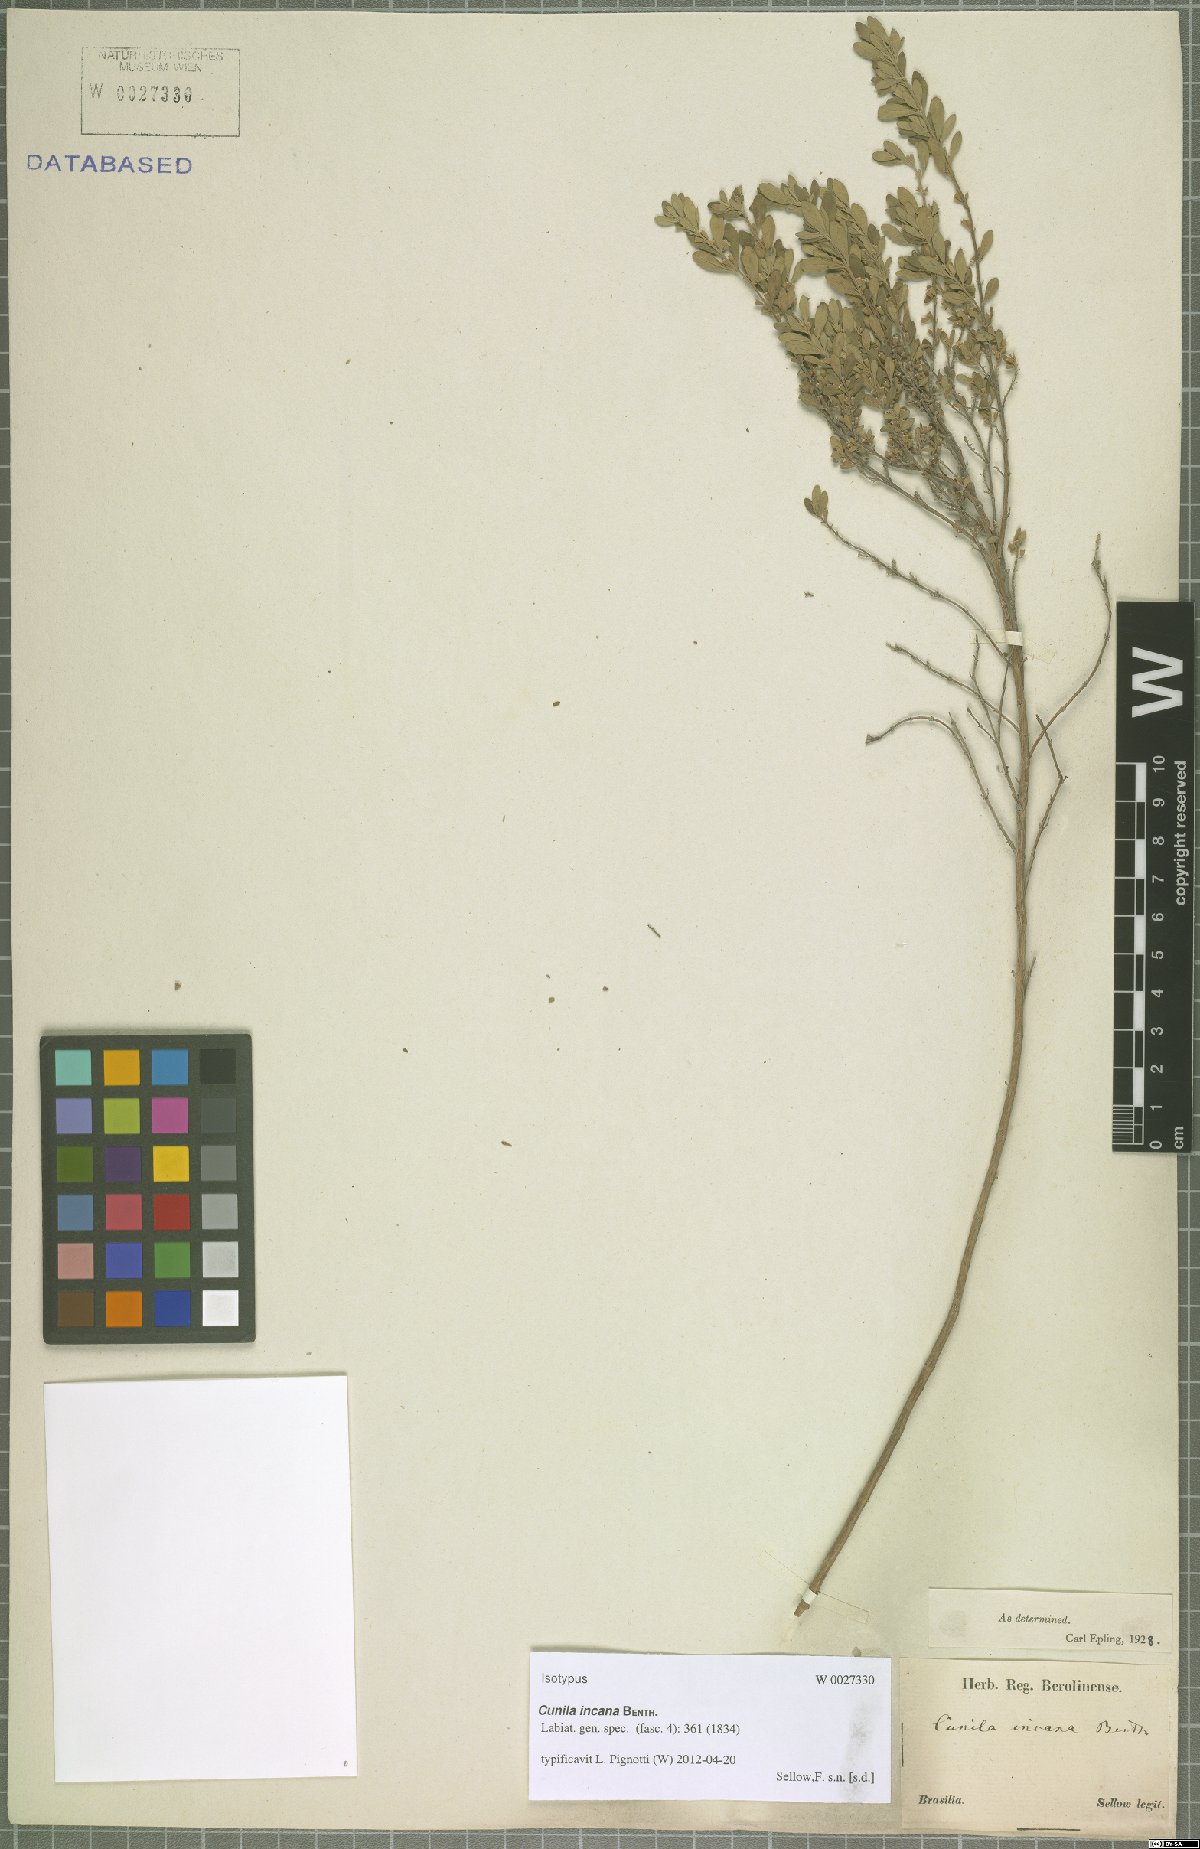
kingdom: Plantae
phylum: Tracheophyta
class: Magnoliopsida
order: Lamiales
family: Lamiaceae
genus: Cunila
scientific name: Cunila incana
